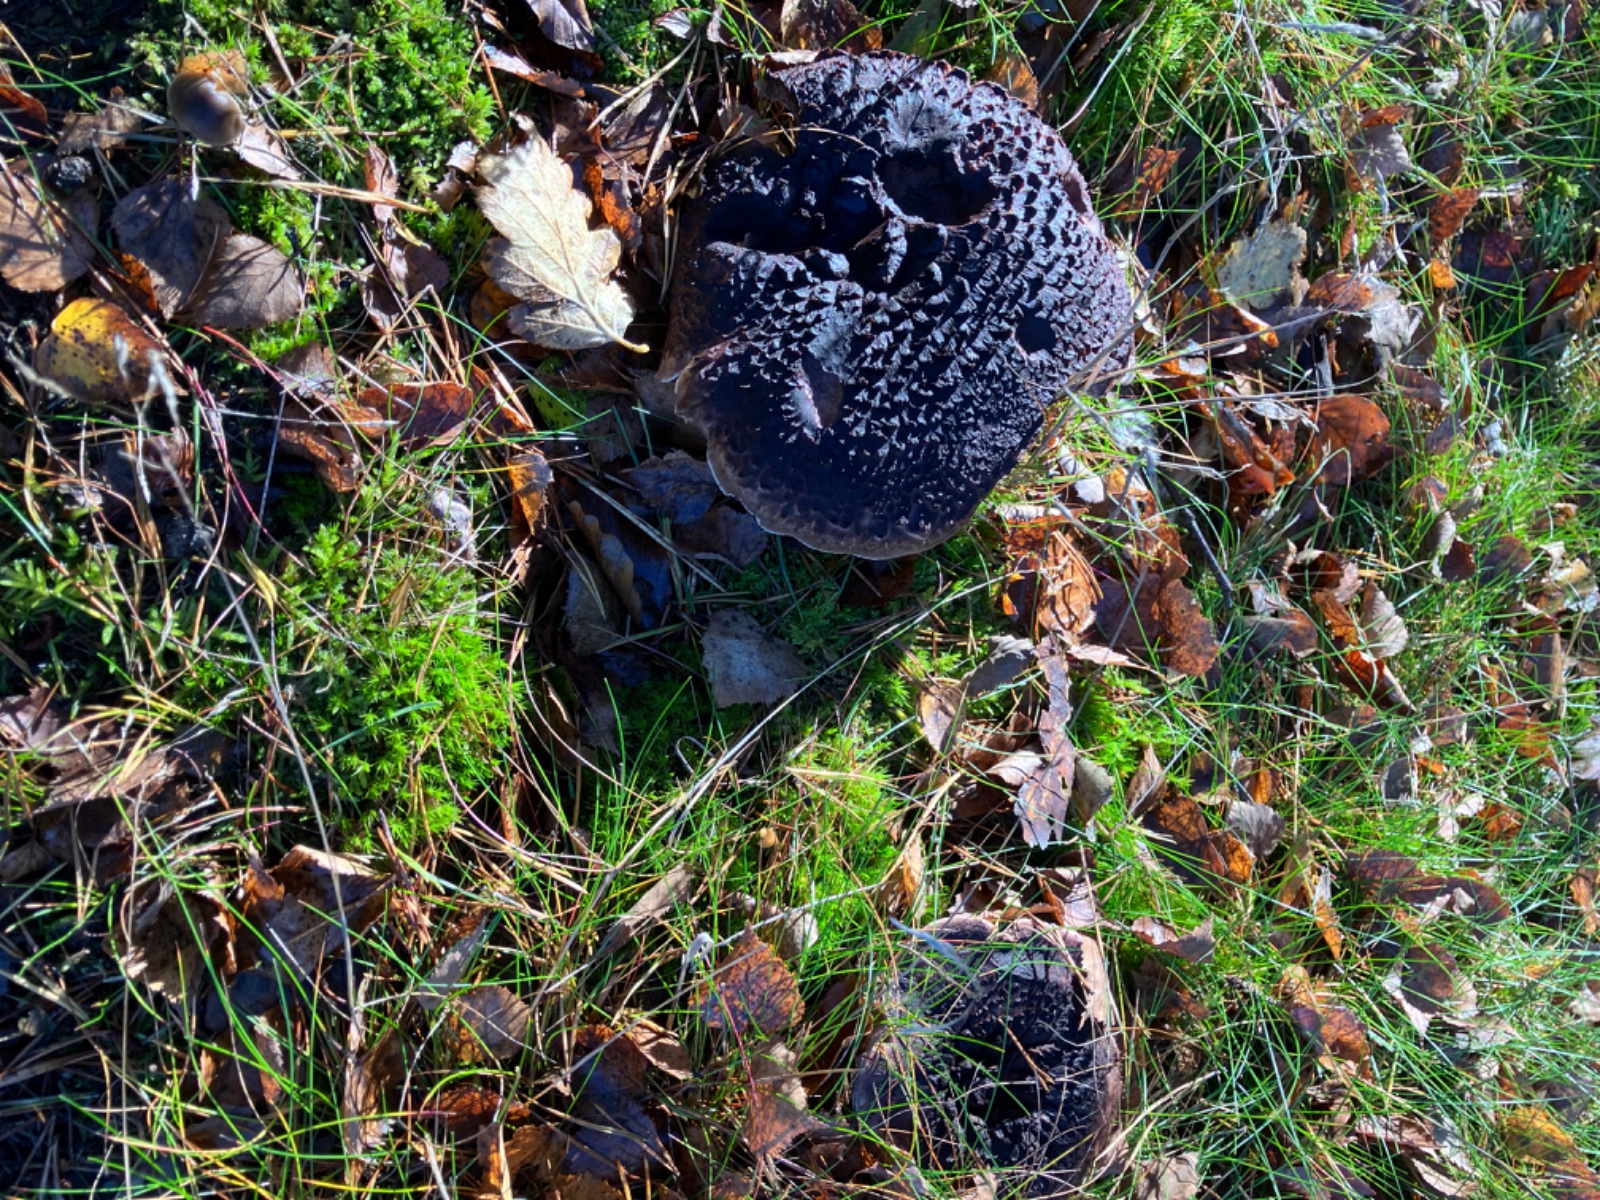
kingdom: Fungi
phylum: Basidiomycota
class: Agaricomycetes
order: Thelephorales
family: Bankeraceae
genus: Sarcodon
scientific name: Sarcodon squamosus
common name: småskællet kødpigsvamp
